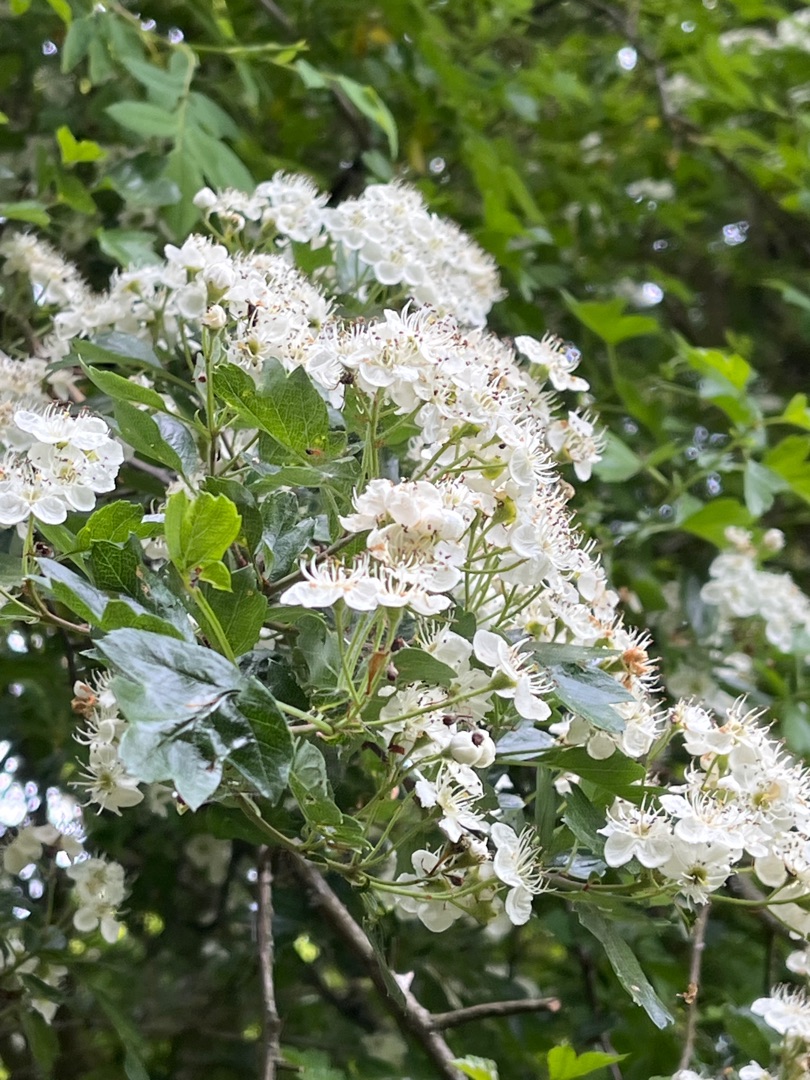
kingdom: Plantae
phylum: Tracheophyta
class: Magnoliopsida
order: Rosales
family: Rosaceae
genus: Crataegus
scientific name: Crataegus media
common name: Almindelig hvidtjørn × engriflet hvidtjørn
